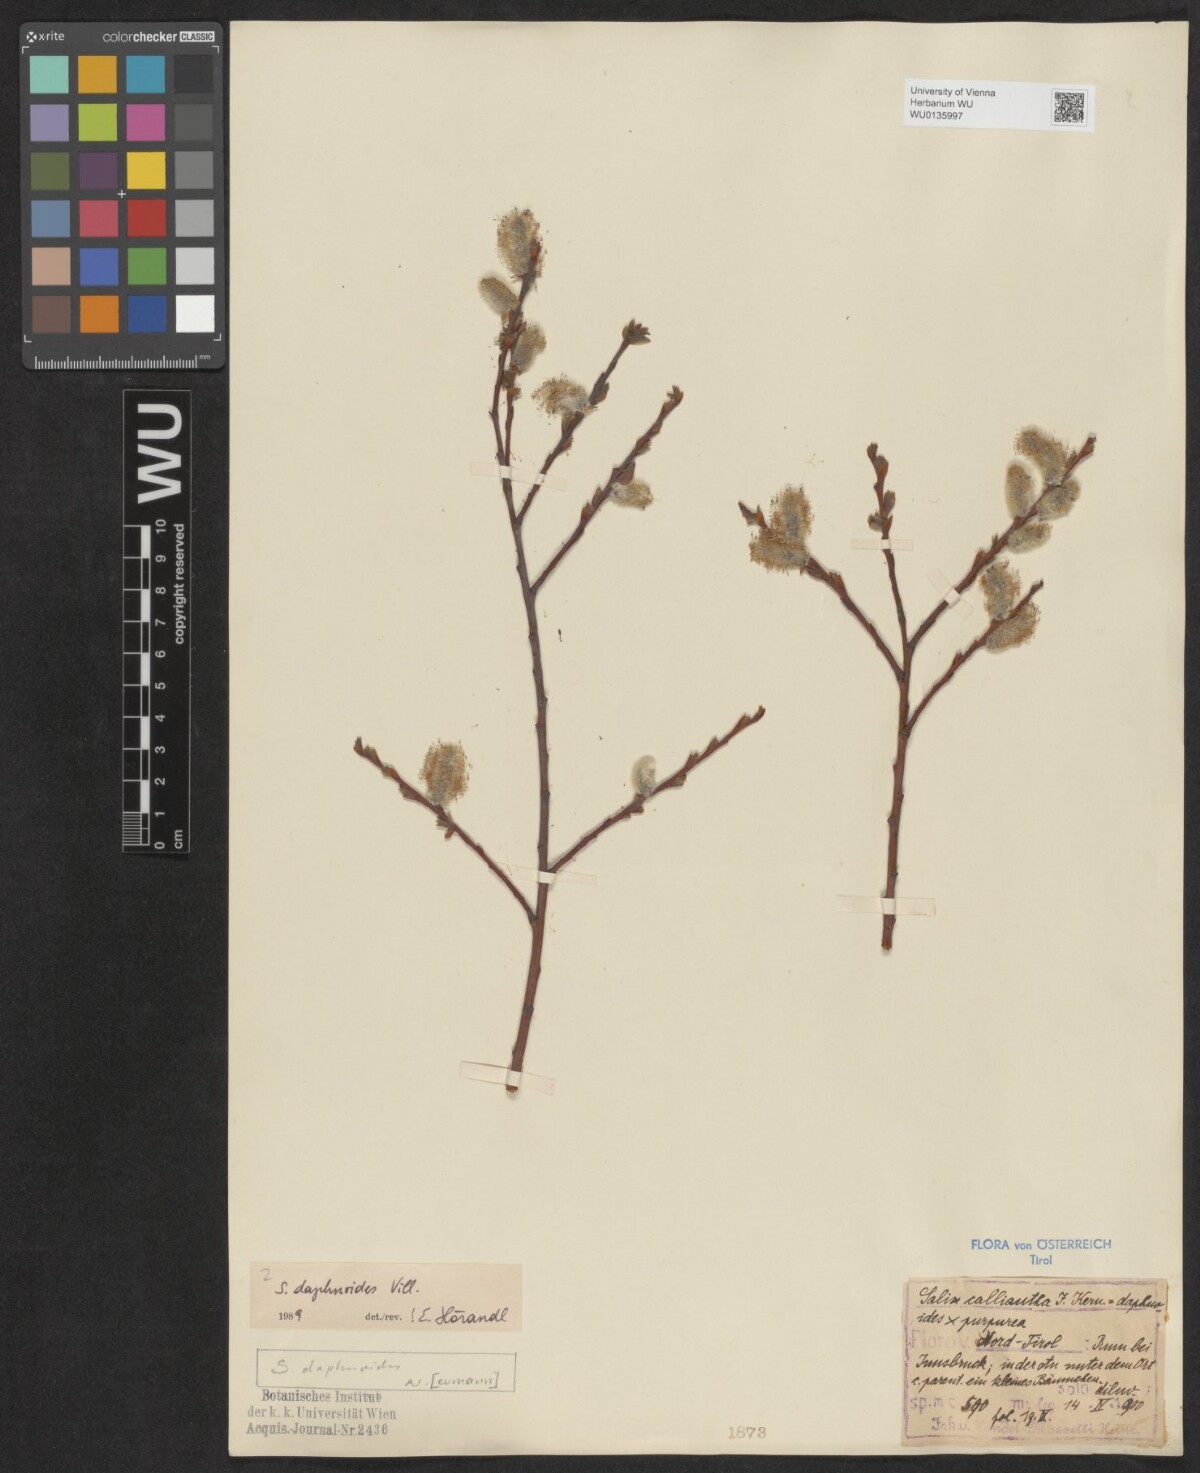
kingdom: Plantae
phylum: Tracheophyta
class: Magnoliopsida
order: Malpighiales
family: Salicaceae
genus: Salix
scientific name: Salix daphnoides
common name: European violet-willow
